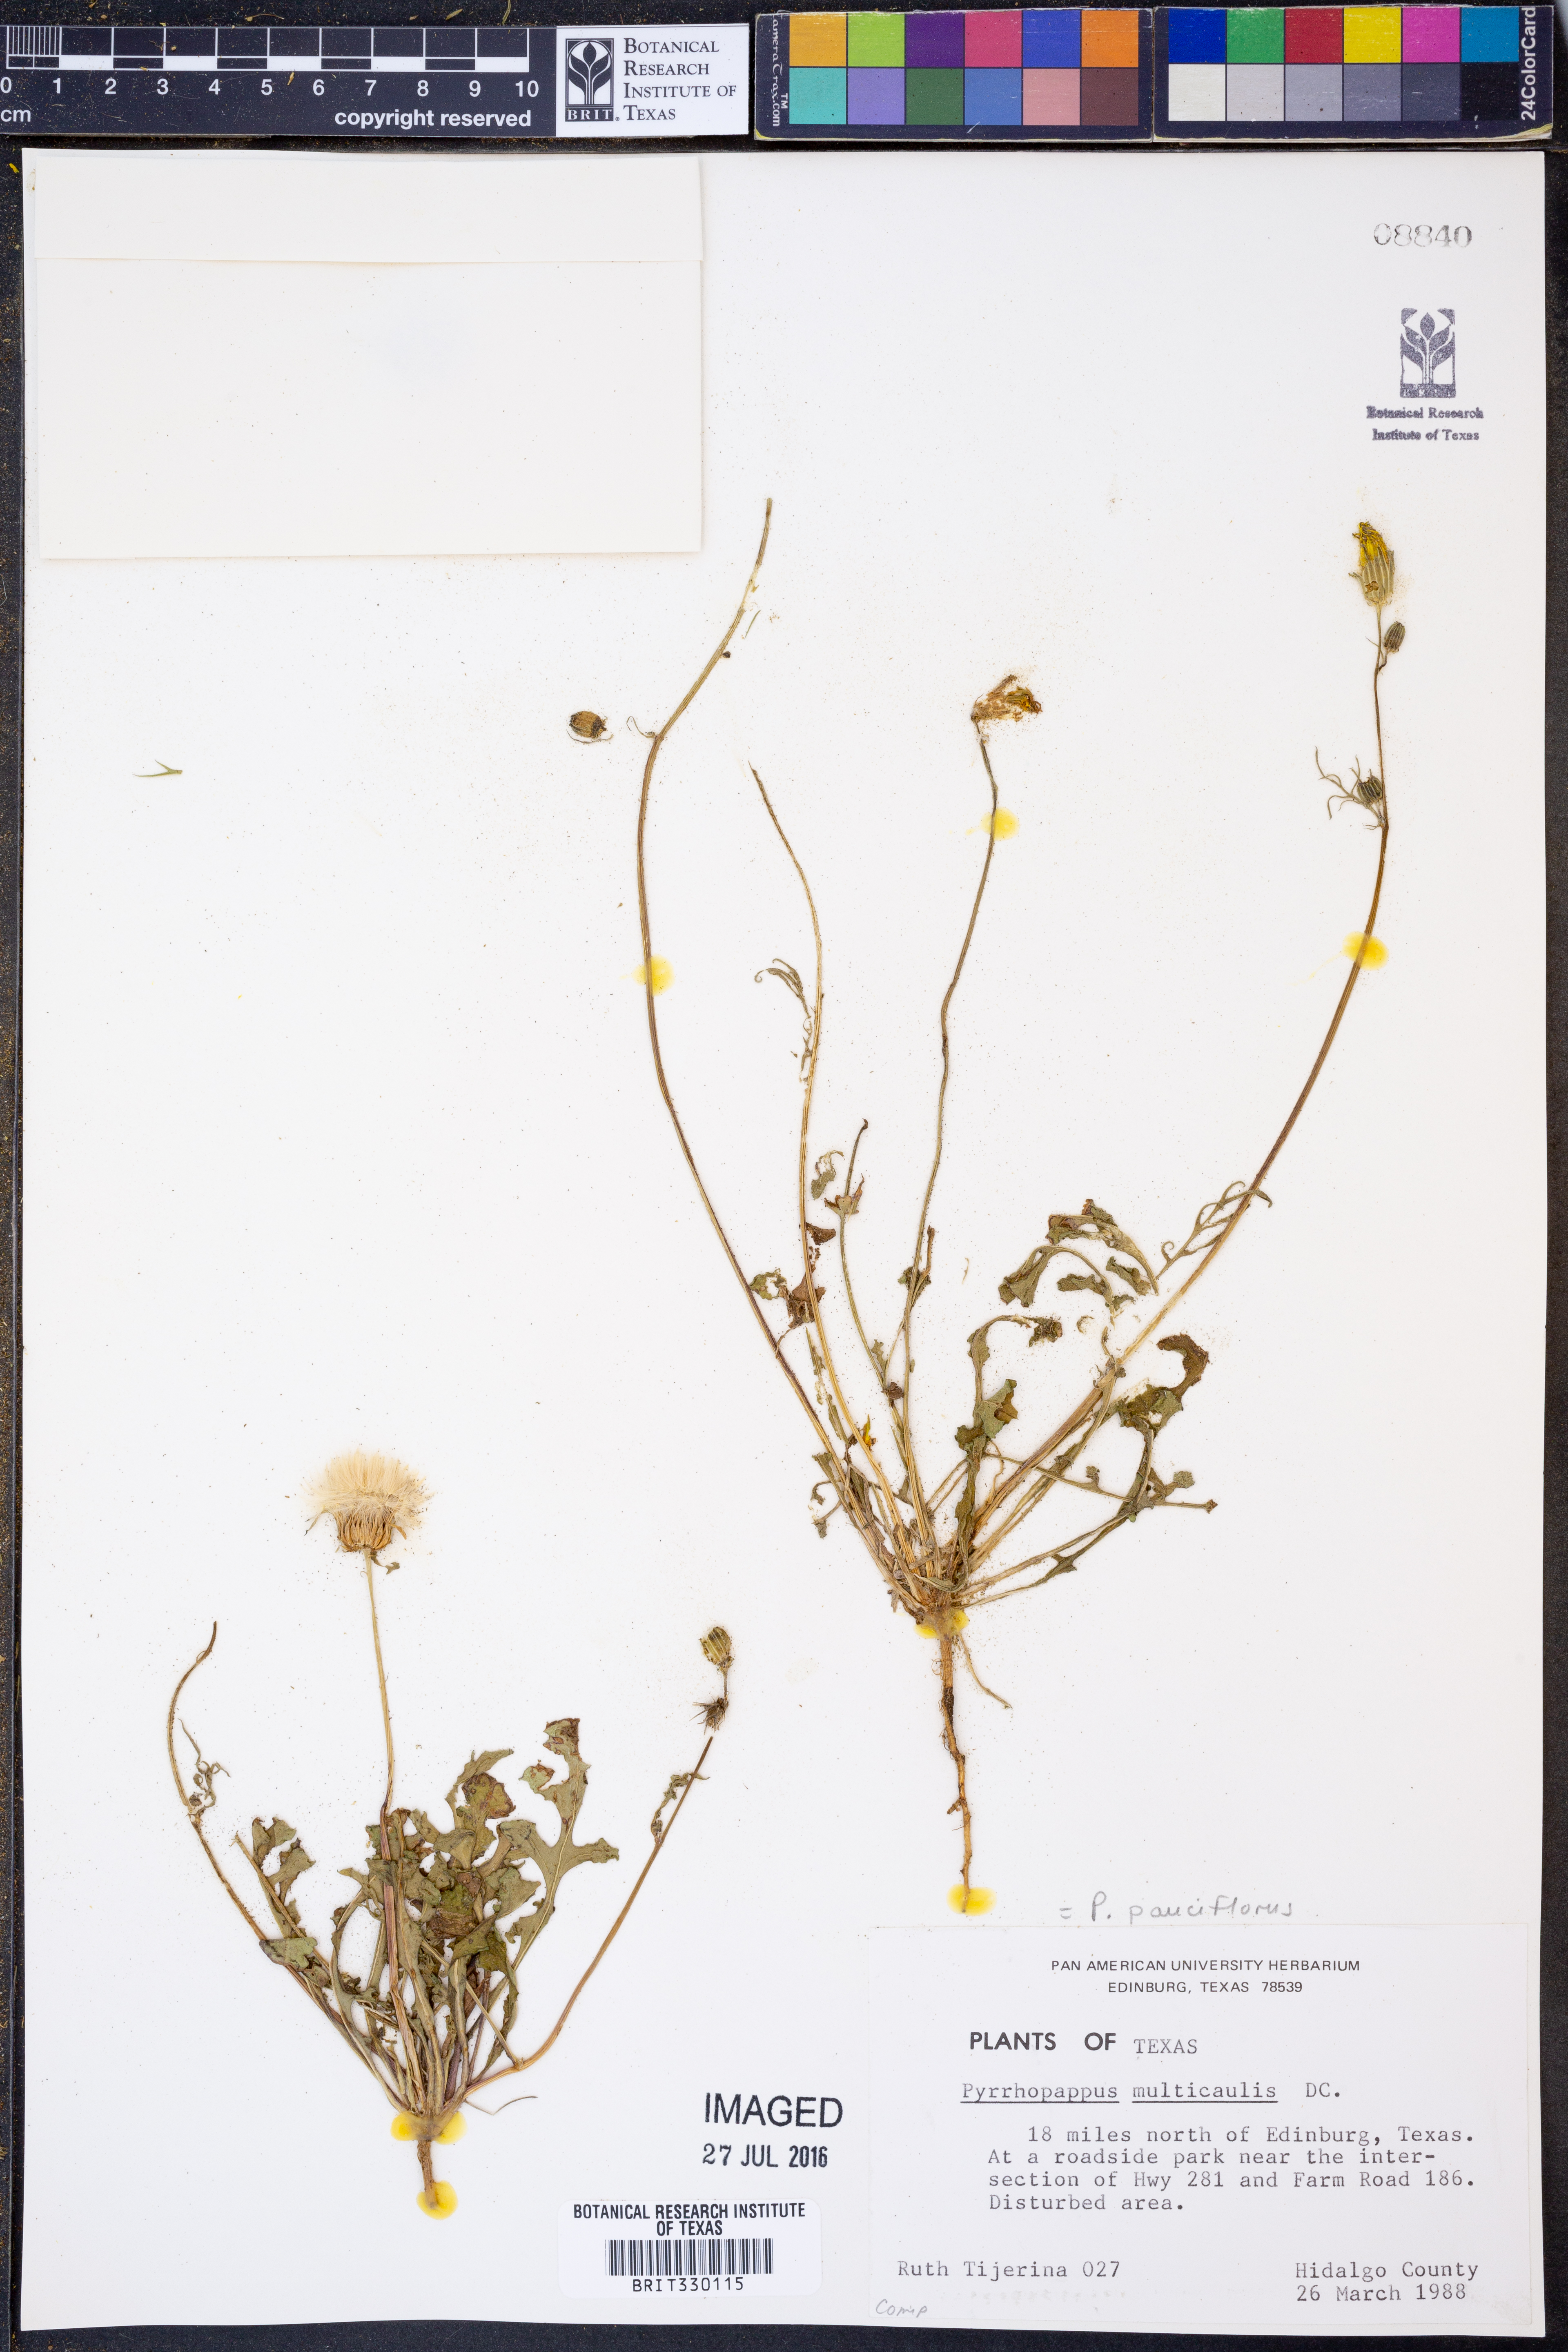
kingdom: Plantae
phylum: Tracheophyta
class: Magnoliopsida
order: Asterales
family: Asteraceae
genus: Pyrrhopappus
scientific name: Pyrrhopappus pauciflorus
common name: Texas false dandelion
